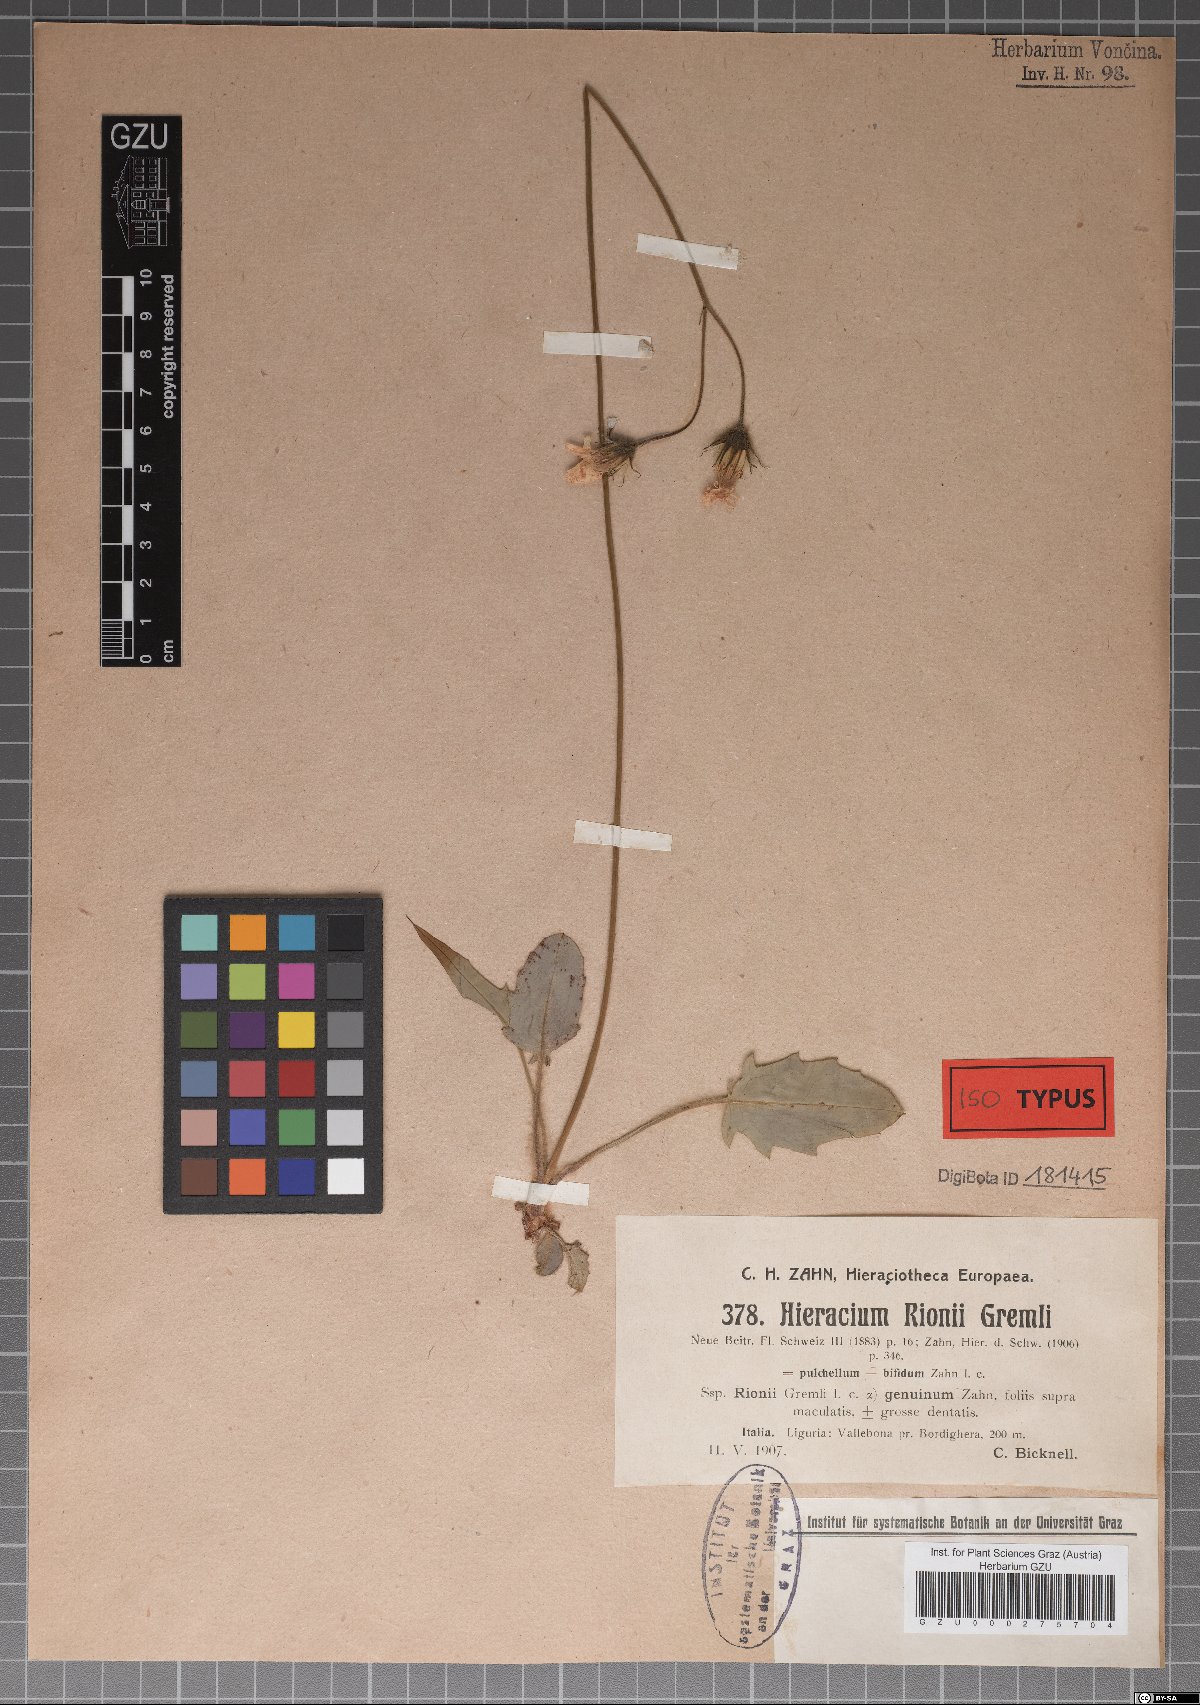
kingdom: Plantae
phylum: Tracheophyta
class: Magnoliopsida
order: Asterales
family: Asteraceae
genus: Hieracium
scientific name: Hieracium caesioides
